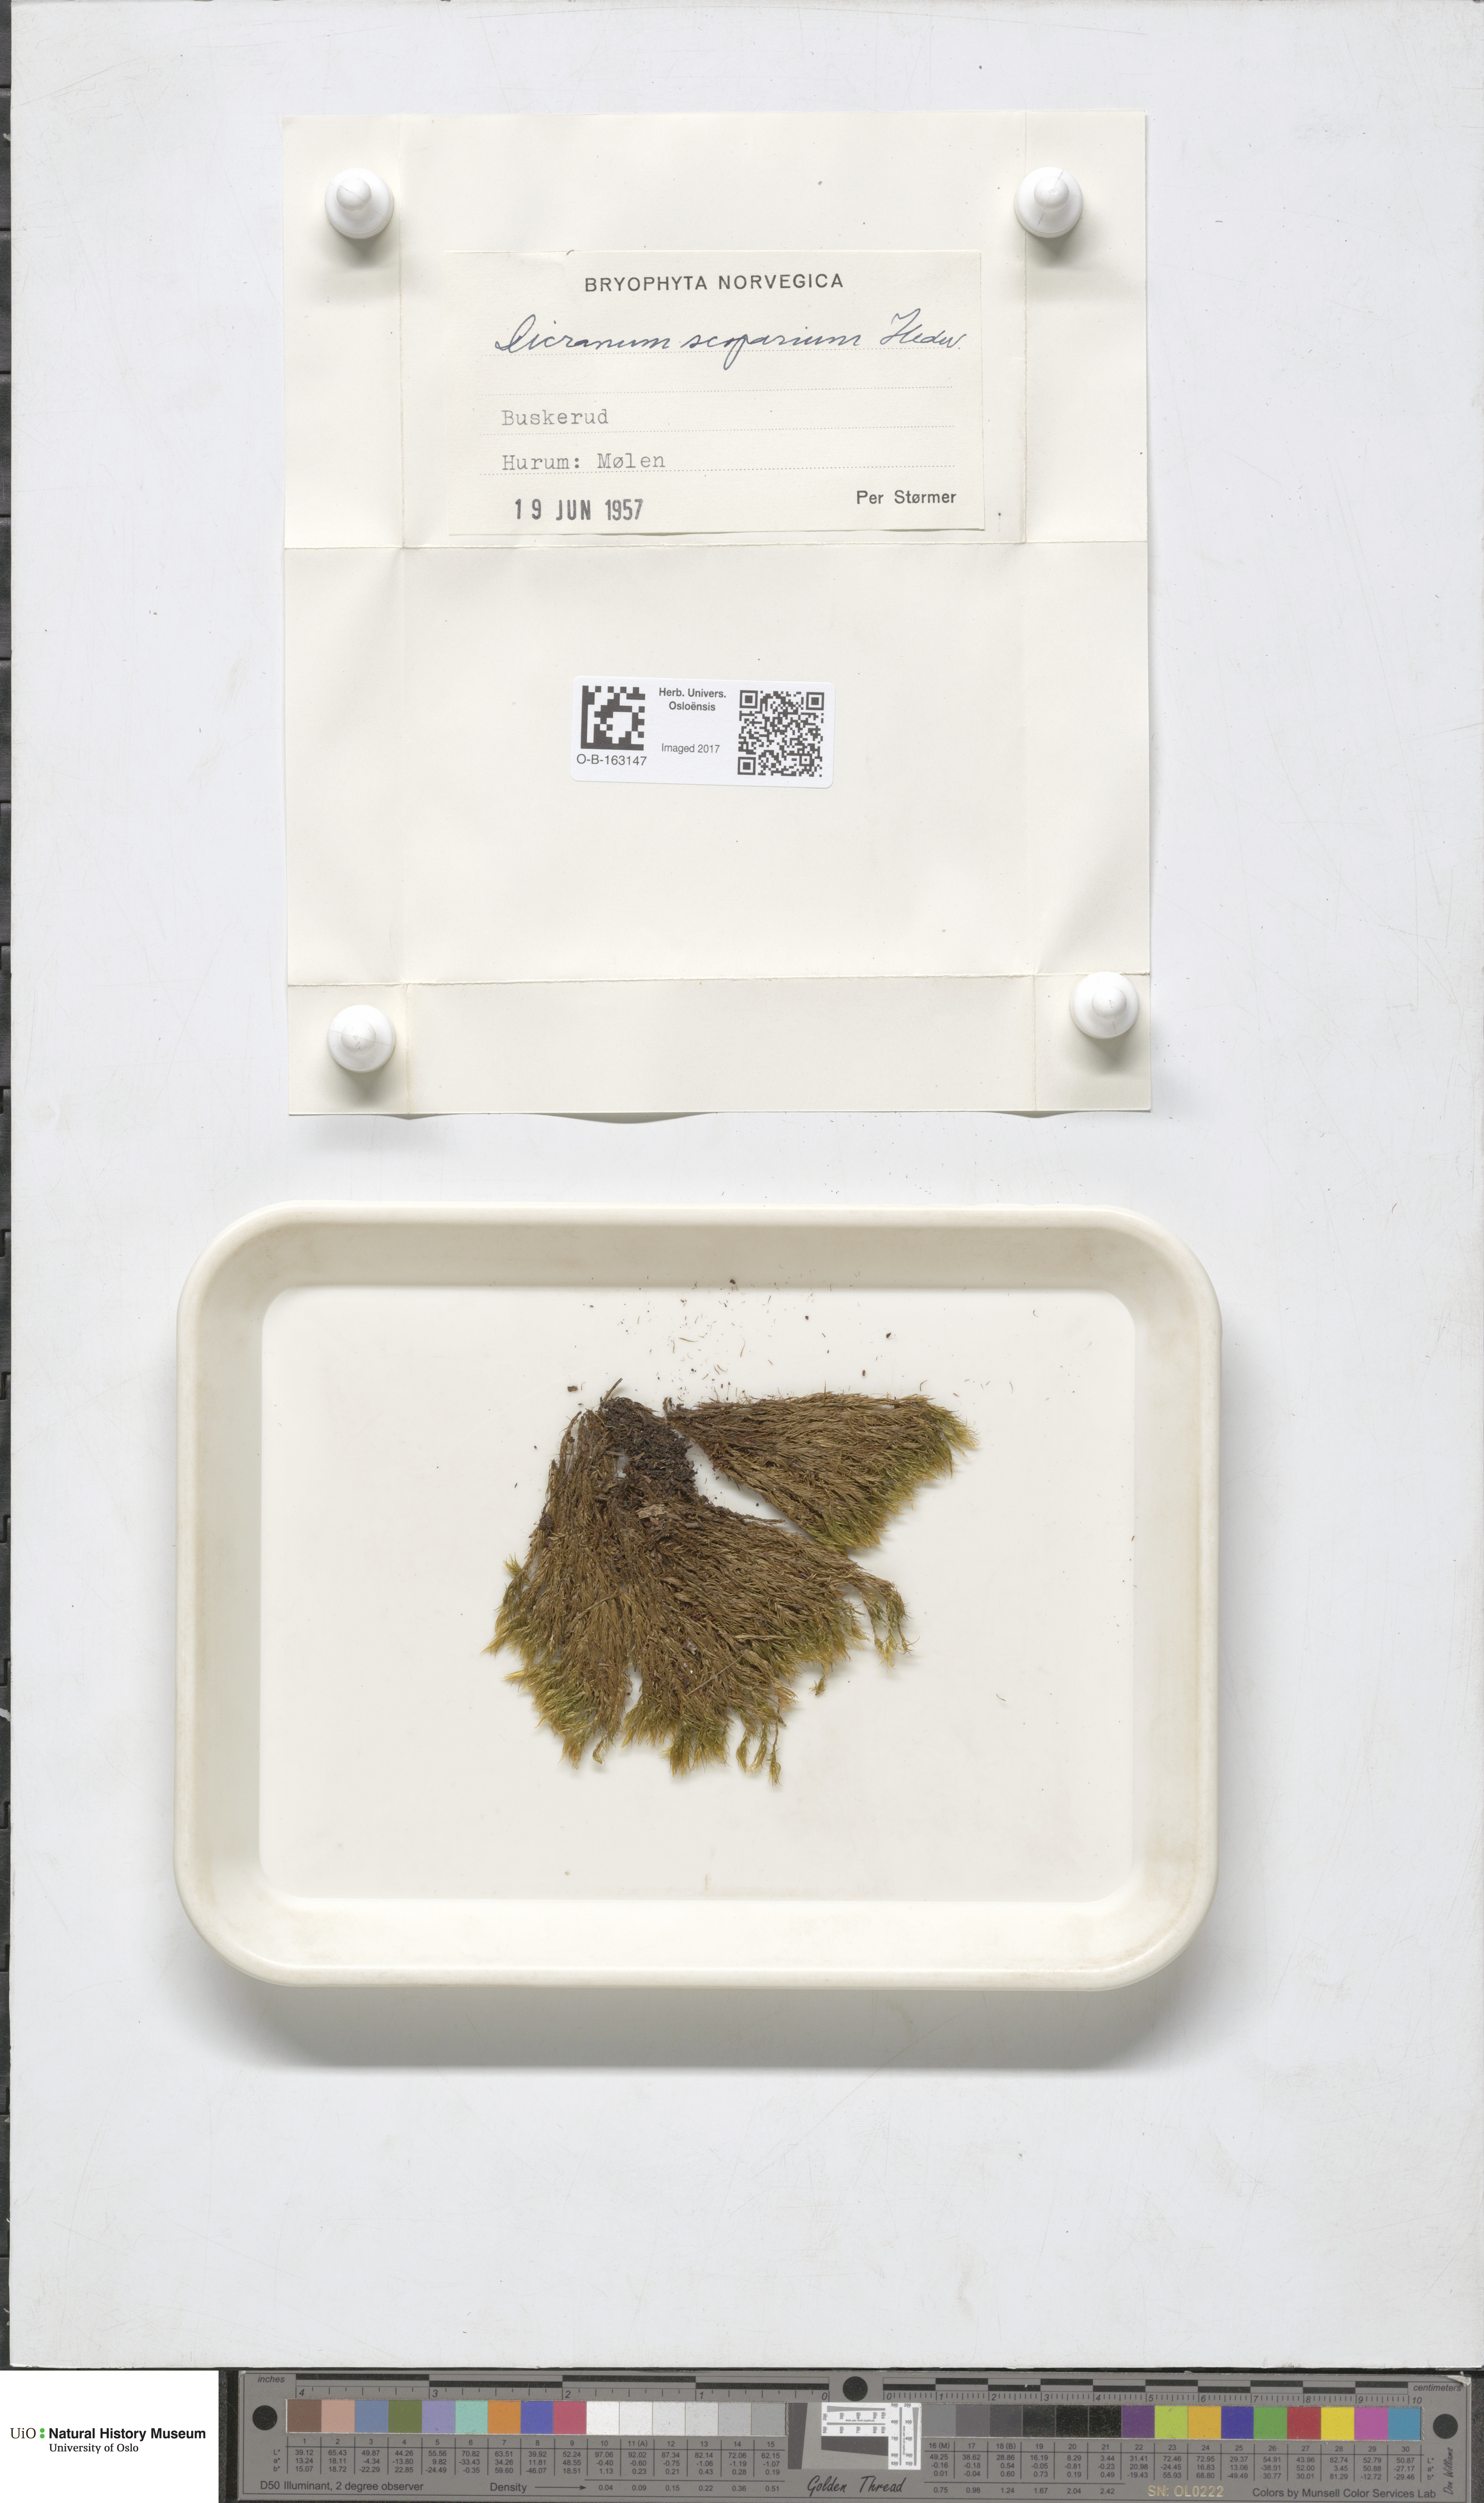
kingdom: Plantae
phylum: Bryophyta
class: Bryopsida
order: Dicranales
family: Dicranaceae
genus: Dicranum
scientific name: Dicranum scoparium
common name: Broom fork-moss
